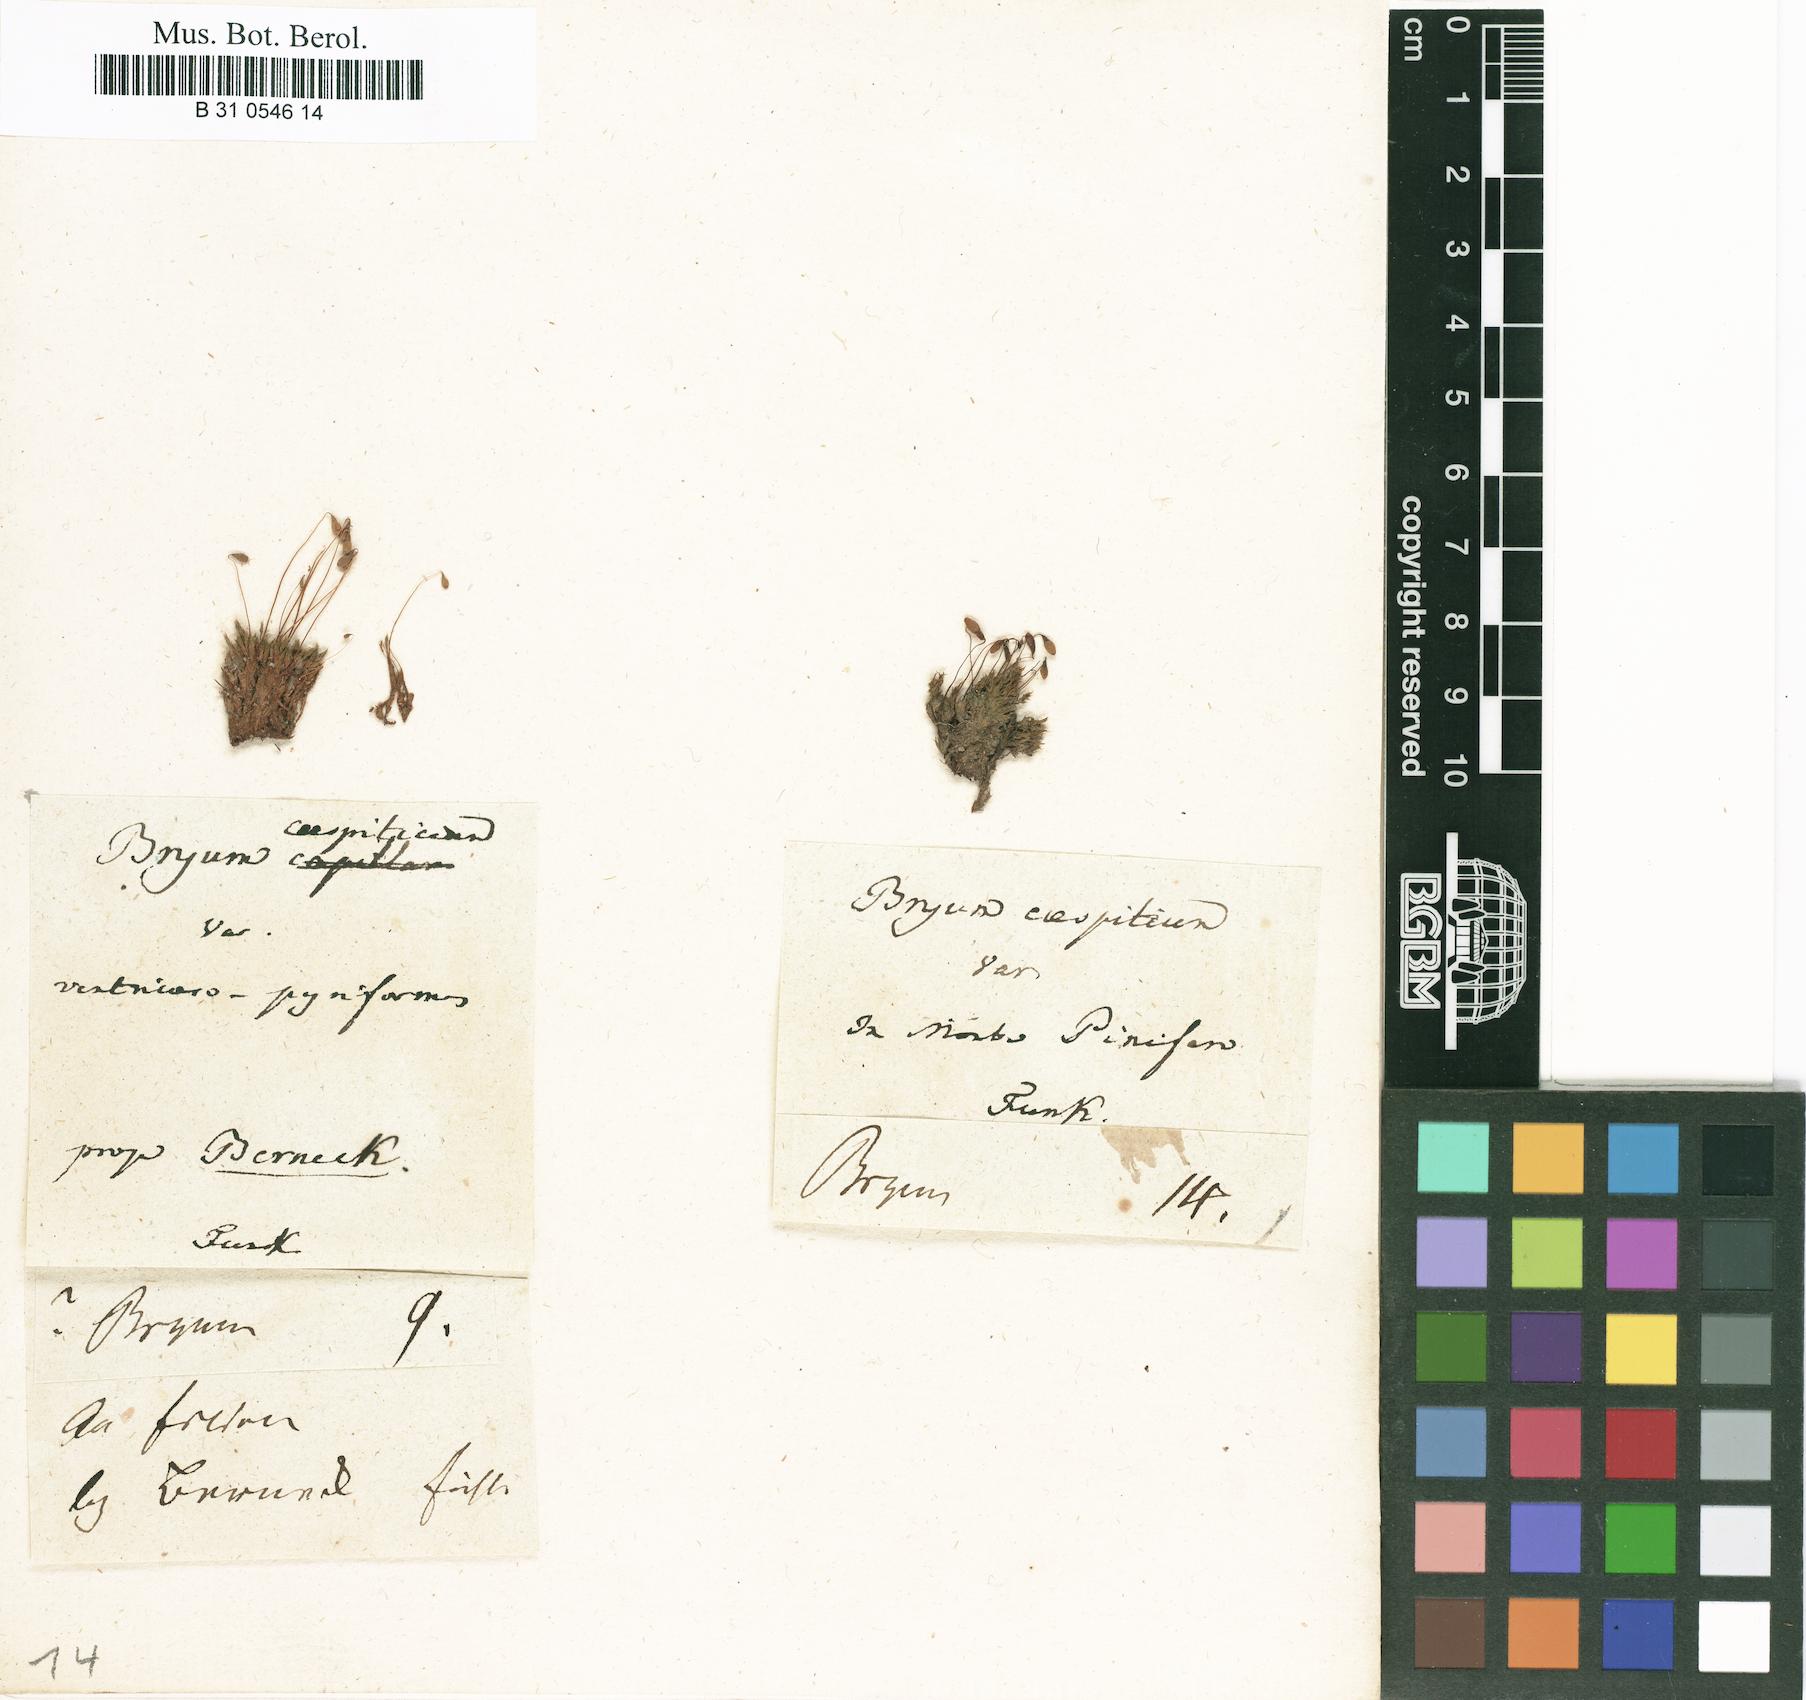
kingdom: Plantae
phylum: Bryophyta
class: Bryopsida
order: Bryales
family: Bryaceae
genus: Gemmabryum
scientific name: Gemmabryum caespiticium
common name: Handbell moss
